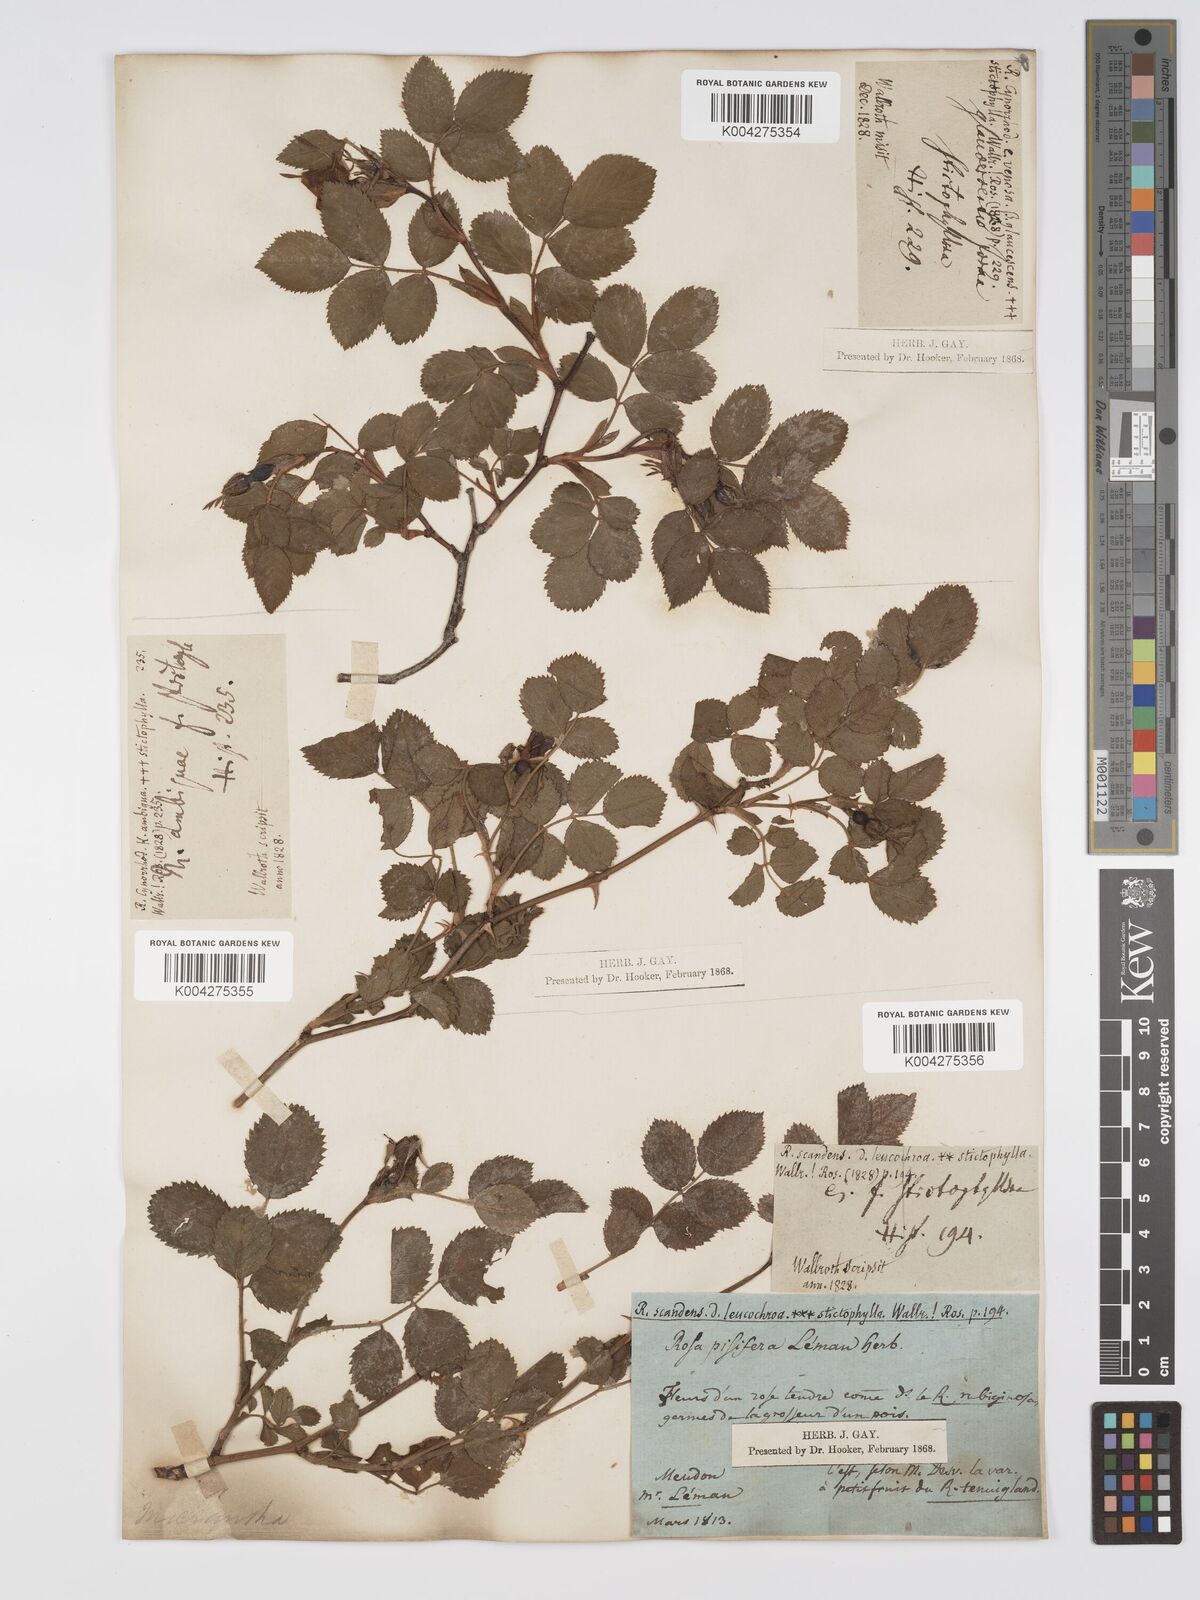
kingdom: Plantae
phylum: Tracheophyta
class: Magnoliopsida
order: Rosales
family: Rosaceae
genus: Rosa
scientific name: Rosa
